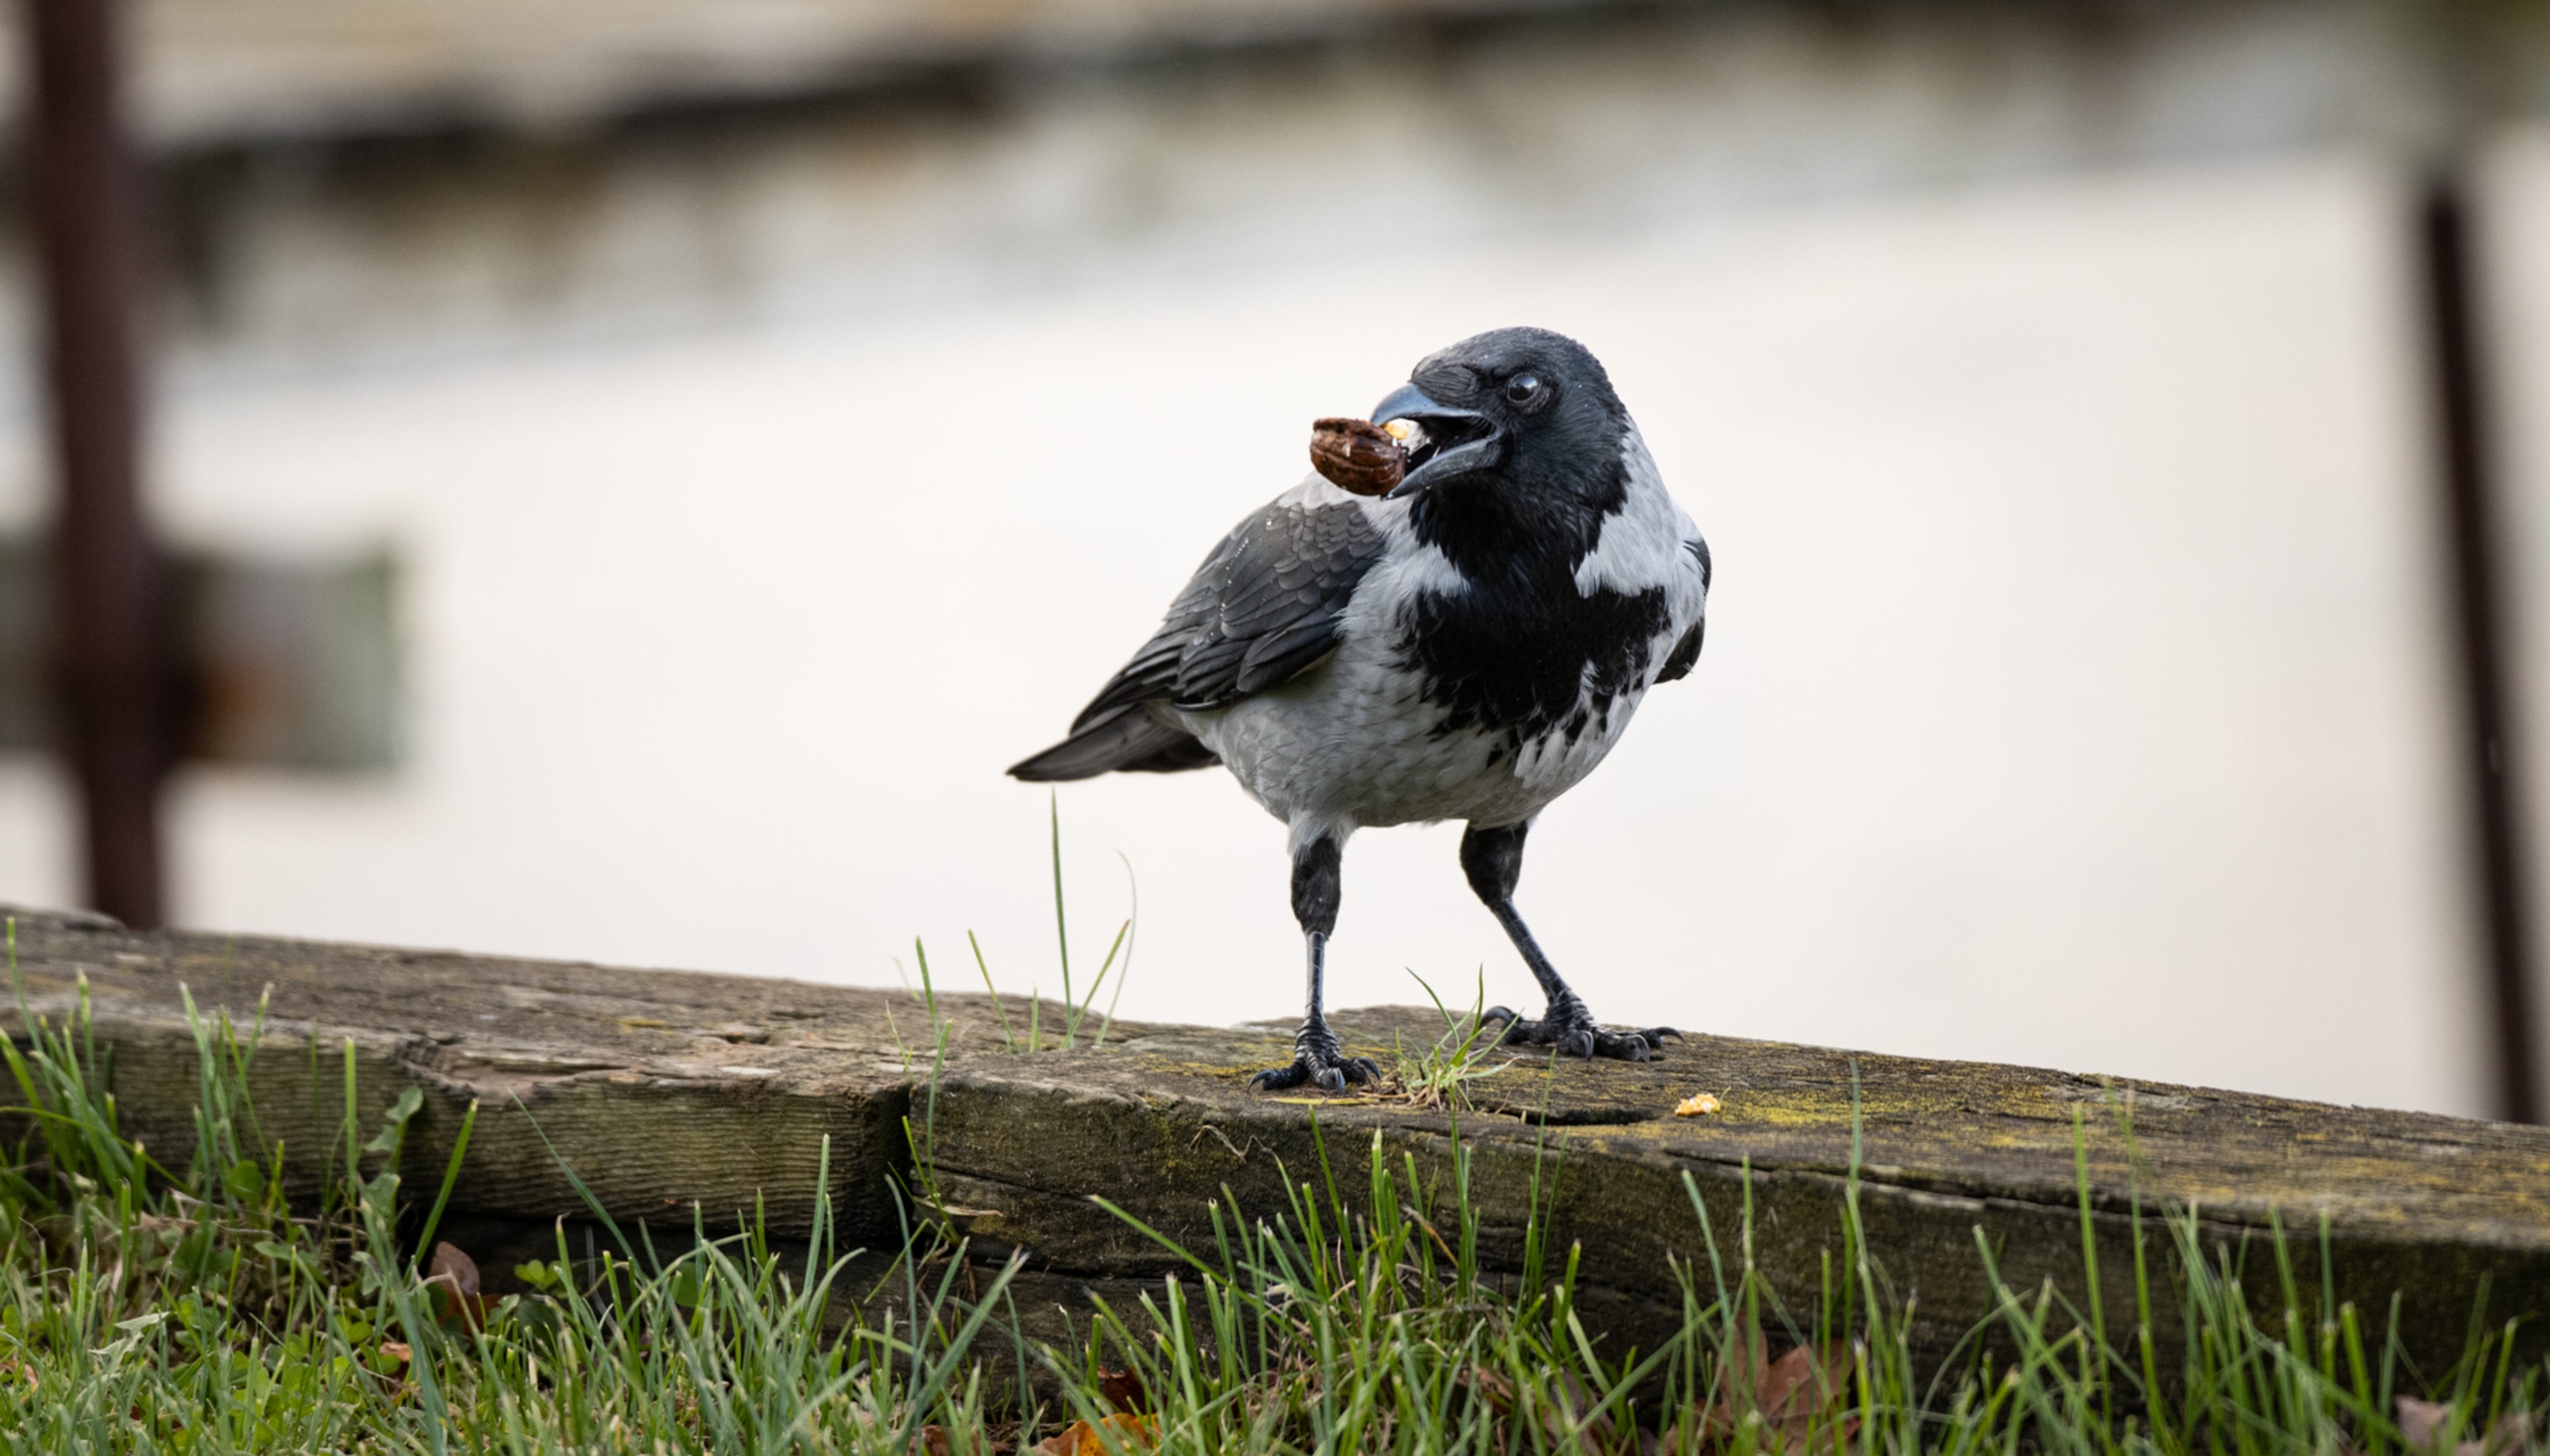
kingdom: Animalia
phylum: Chordata
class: Aves
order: Passeriformes
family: Corvidae
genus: Corvus
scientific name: Corvus cornix
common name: Gråkrage
